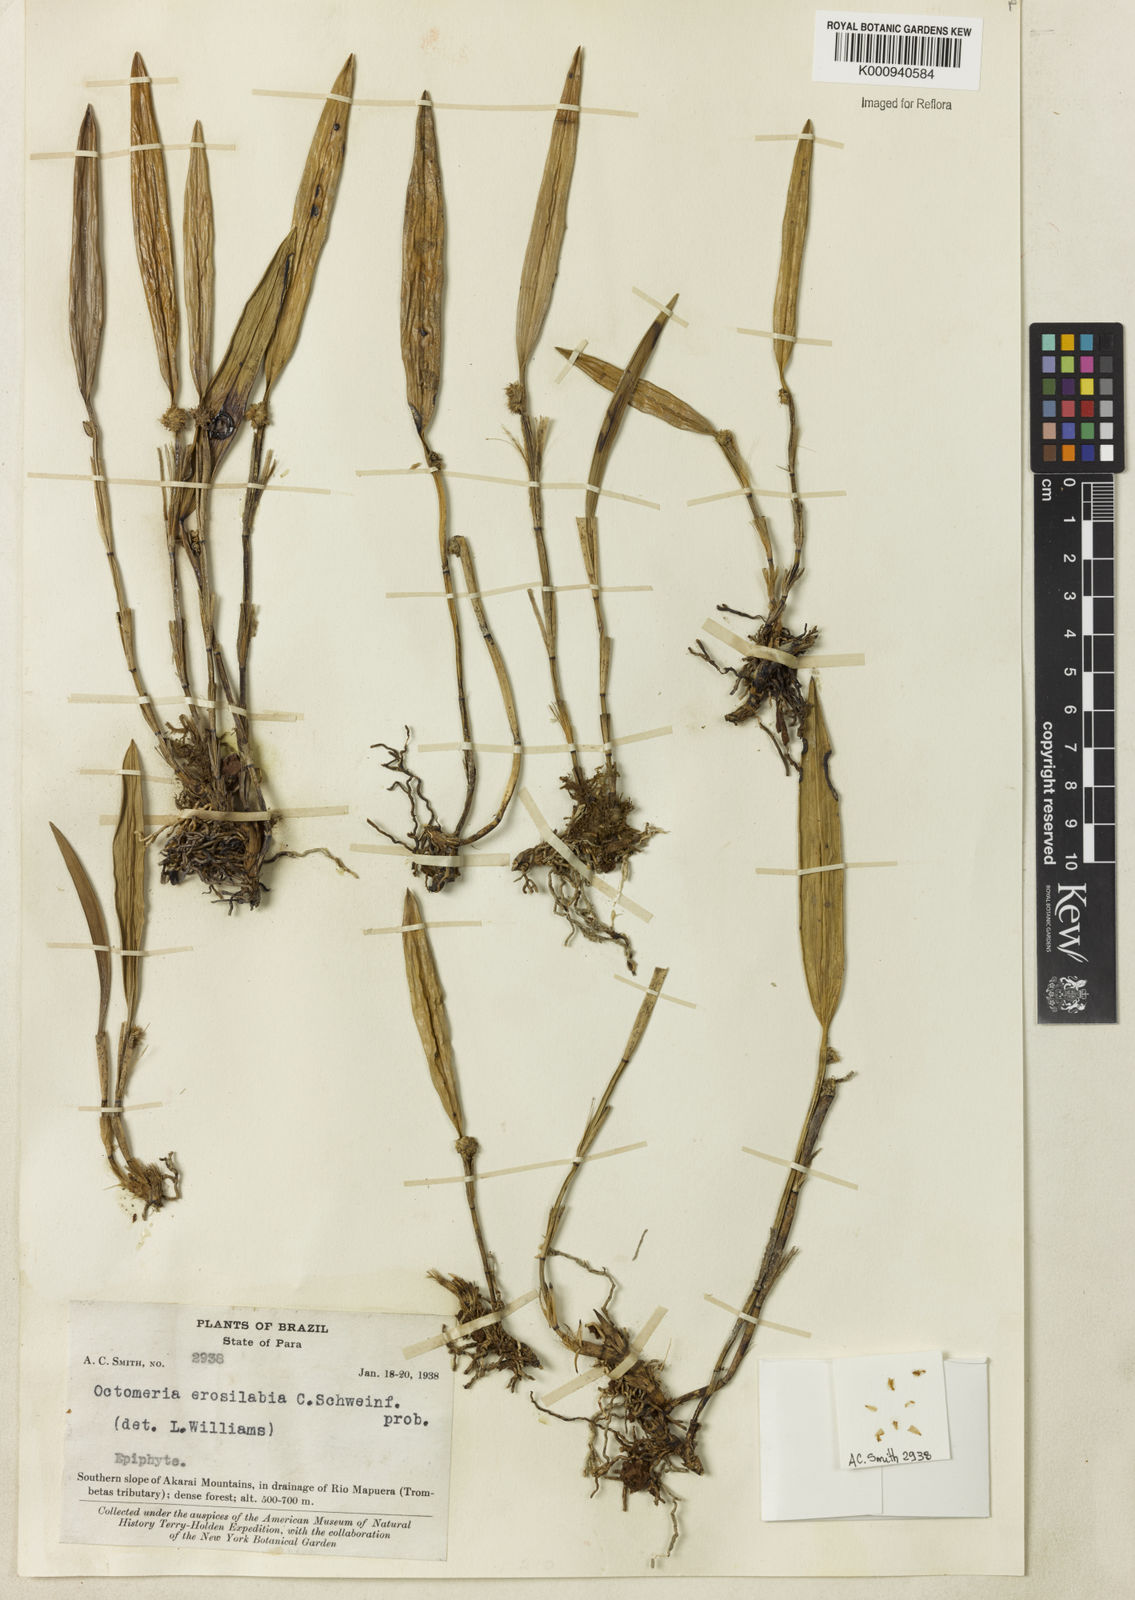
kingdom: Plantae
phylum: Tracheophyta
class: Liliopsida
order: Asparagales
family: Orchidaceae
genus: Octomeria
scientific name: Octomeria erosilabia
